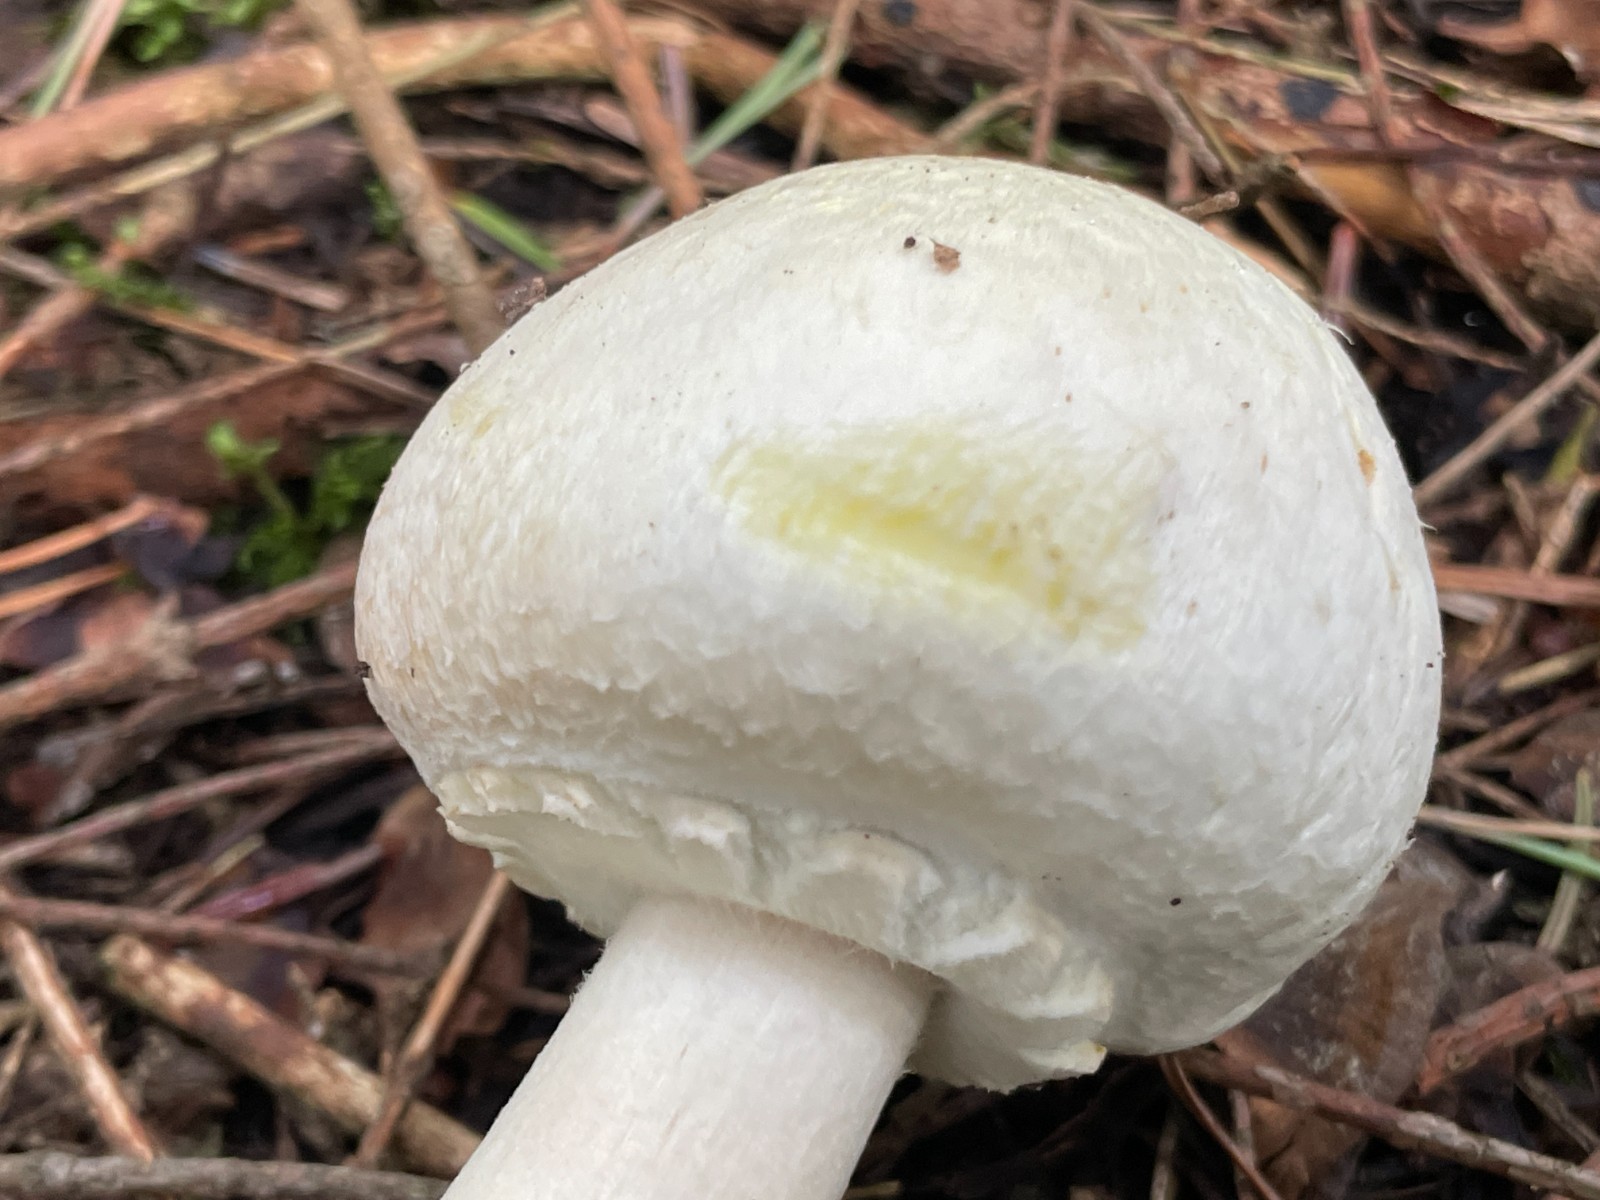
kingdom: Fungi
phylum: Basidiomycota
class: Agaricomycetes
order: Agaricales
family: Agaricaceae
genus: Agaricus
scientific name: Agaricus
